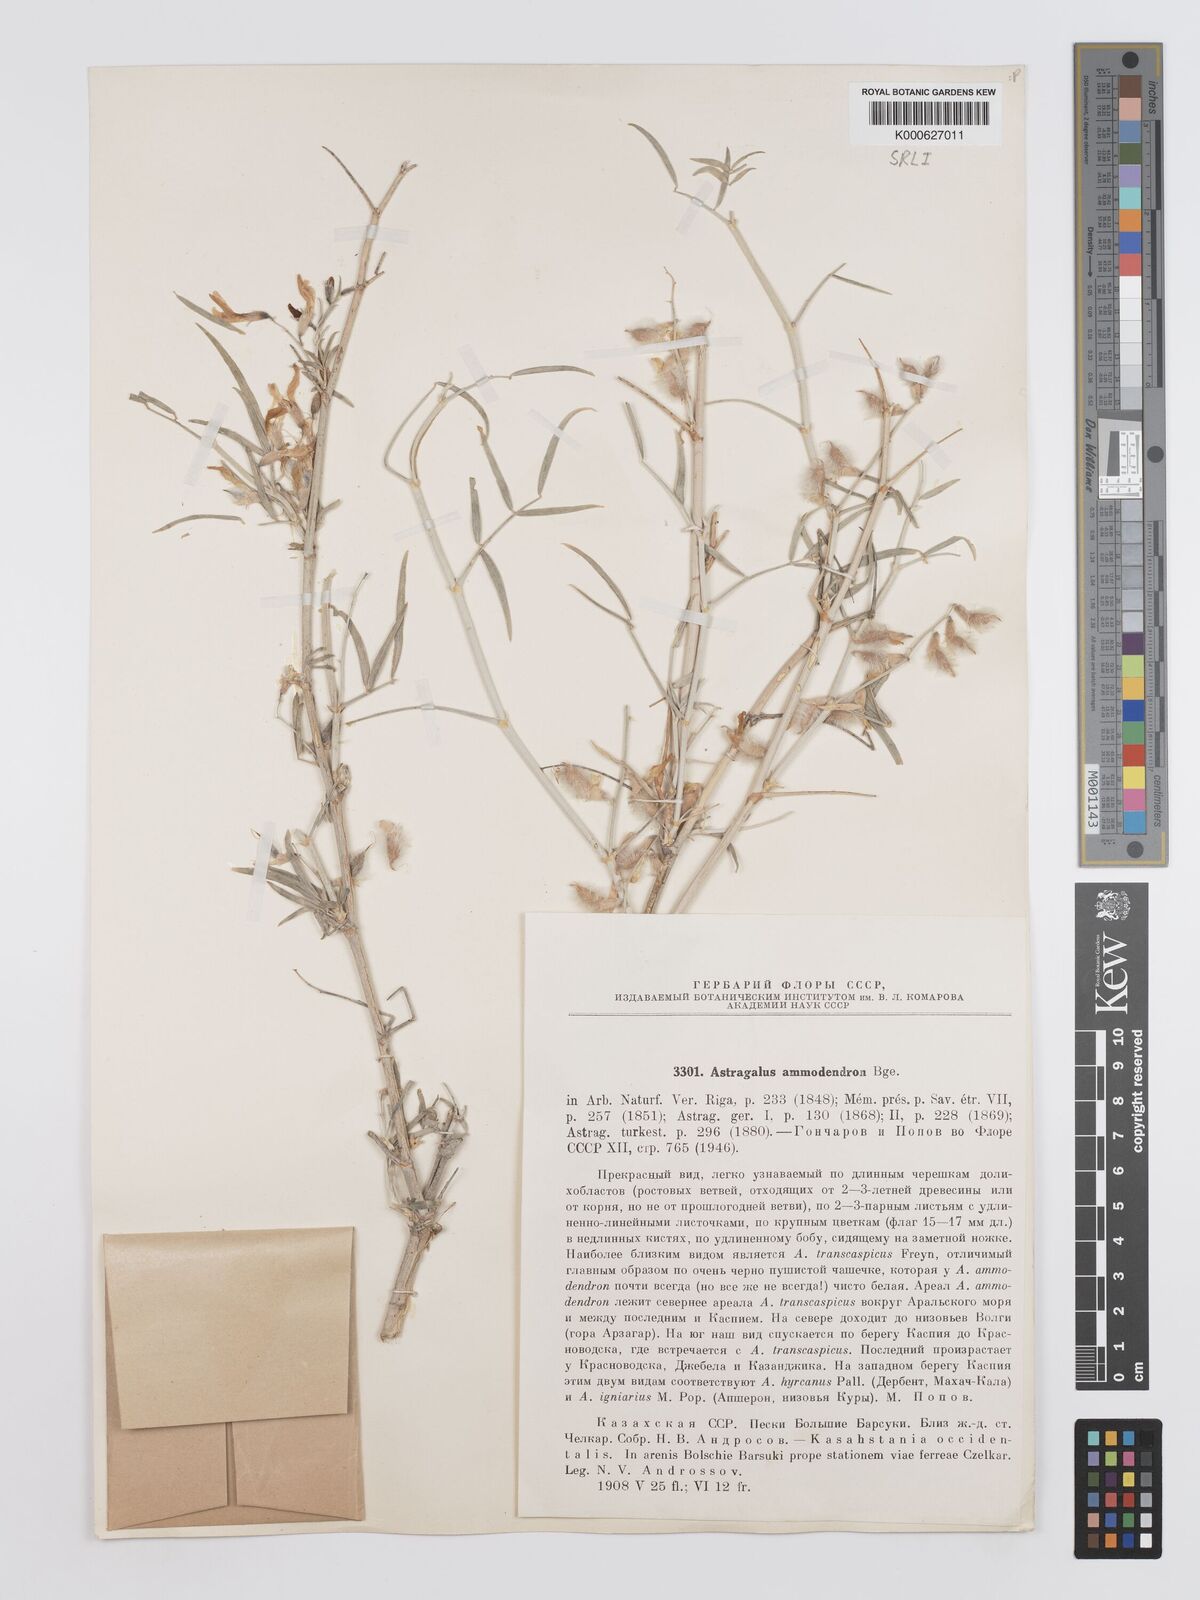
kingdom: Plantae
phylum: Tracheophyta
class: Magnoliopsida
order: Fabales
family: Fabaceae
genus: Astragalus
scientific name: Astragalus ammodendron
